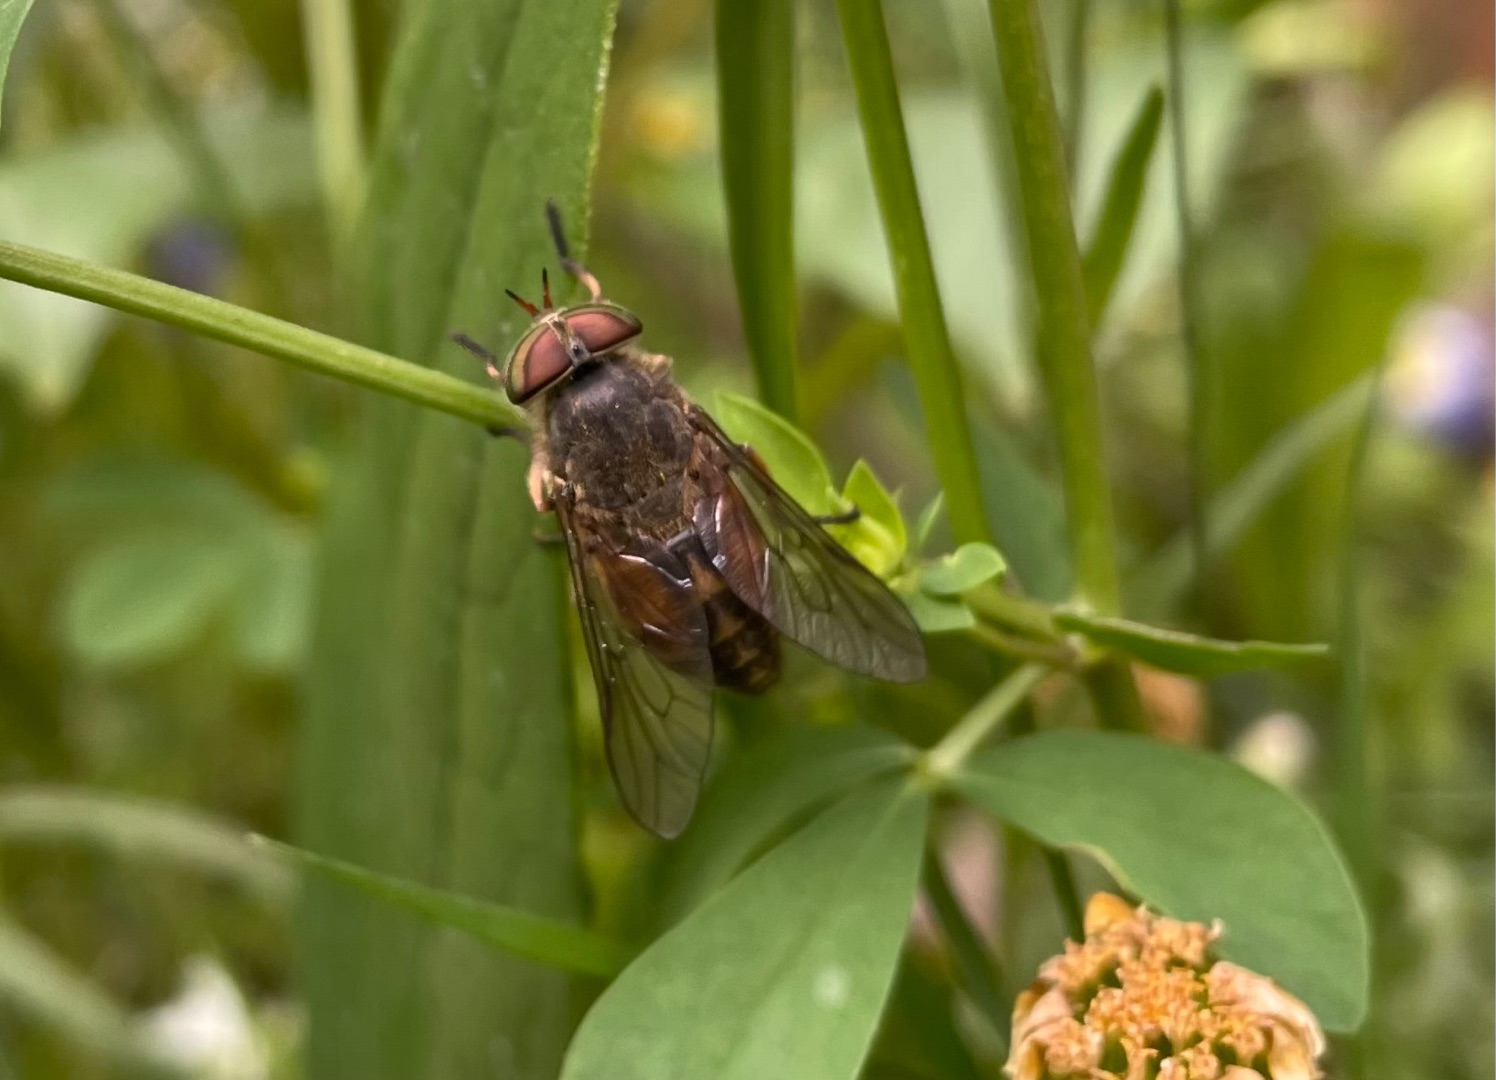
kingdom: Animalia
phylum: Arthropoda
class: Insecta
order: Diptera
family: Tabanidae
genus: Hybomitra
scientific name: Hybomitra bimaculata
